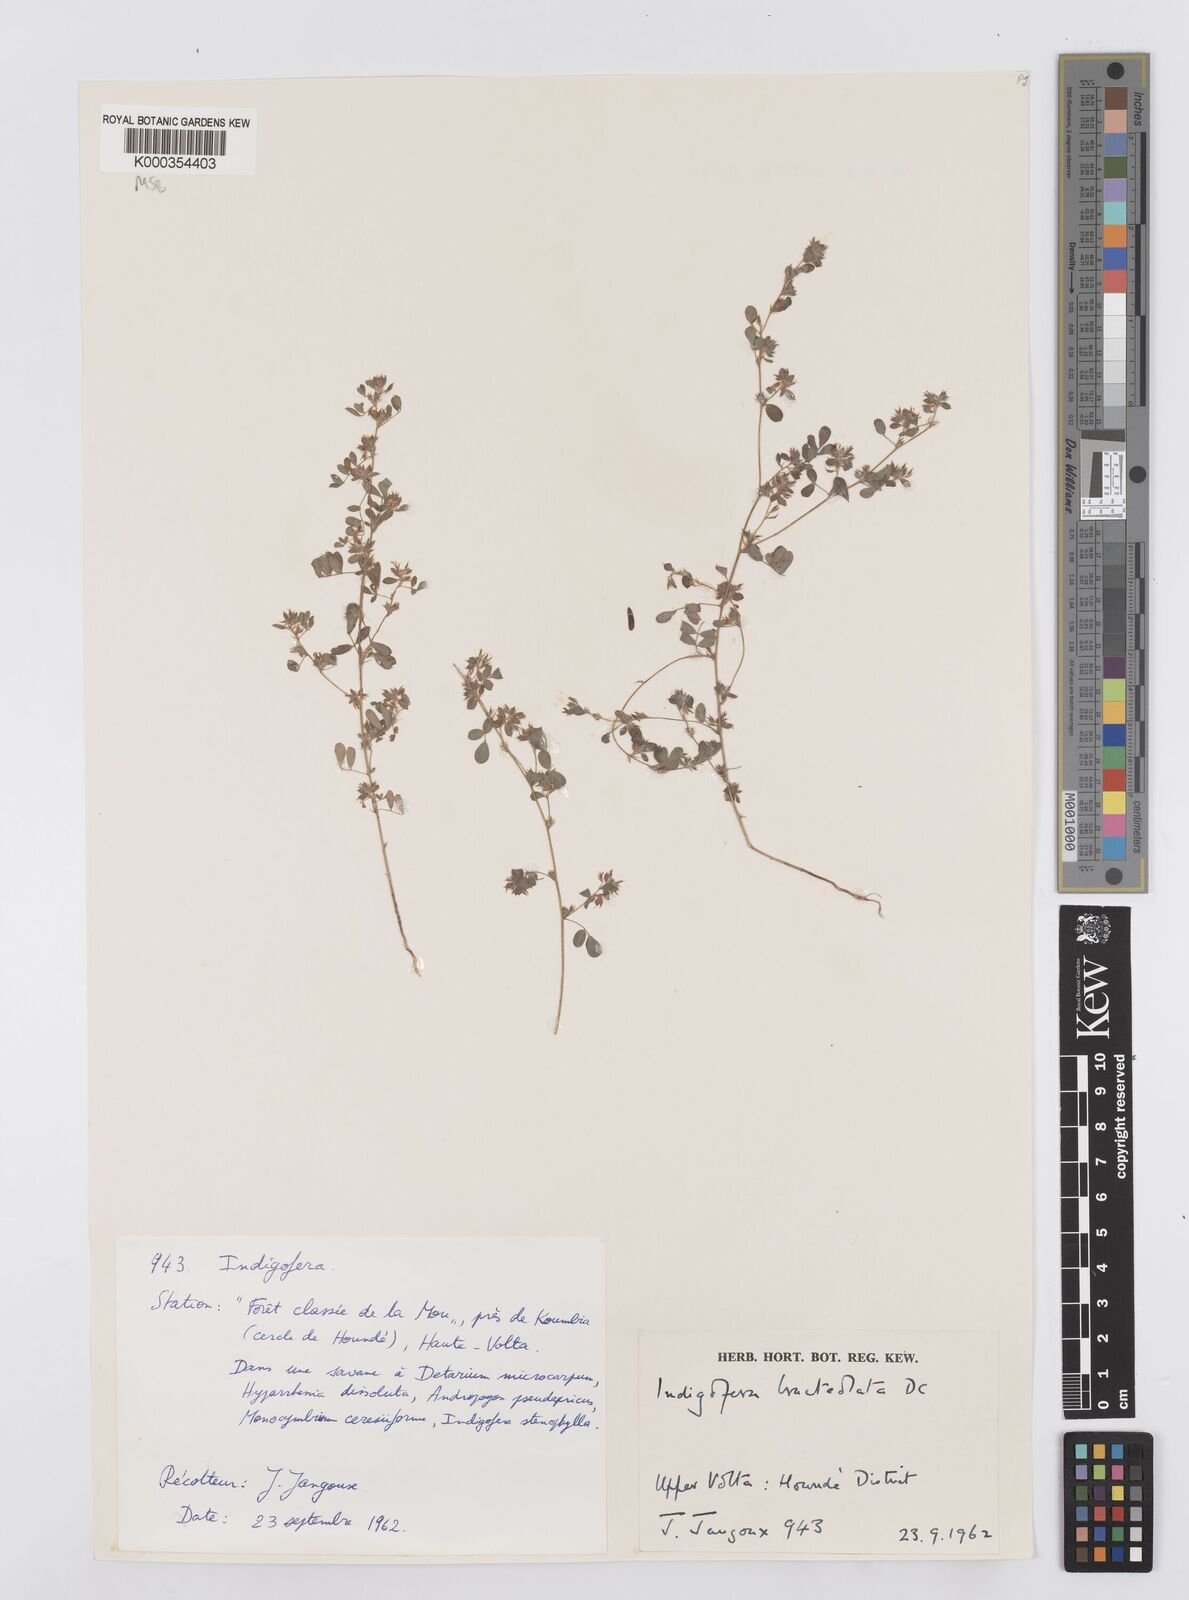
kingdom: Plantae
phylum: Tracheophyta
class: Magnoliopsida
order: Fabales
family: Fabaceae
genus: Indigofera
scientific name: Indigofera bracteolata
